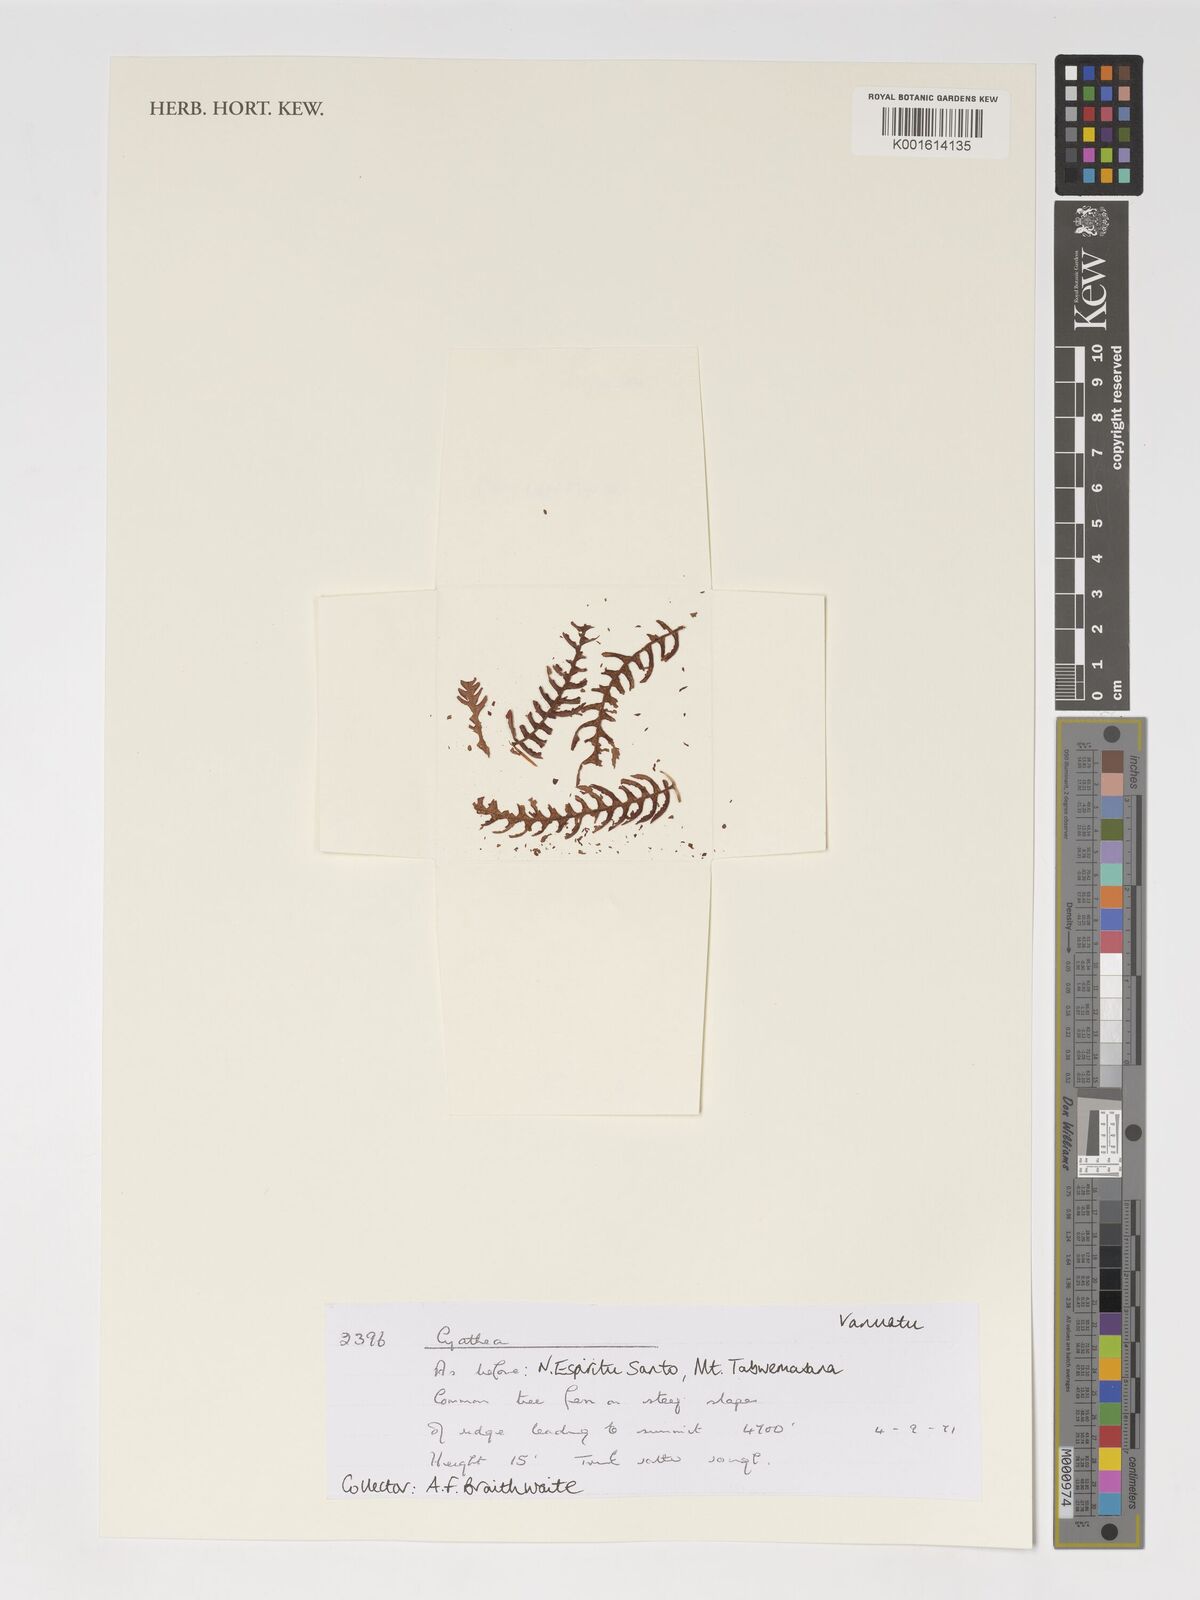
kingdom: Plantae
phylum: Tracheophyta
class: Polypodiopsida
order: Cyatheales
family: Cyatheaceae
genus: Cyathea
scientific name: Cyathea
